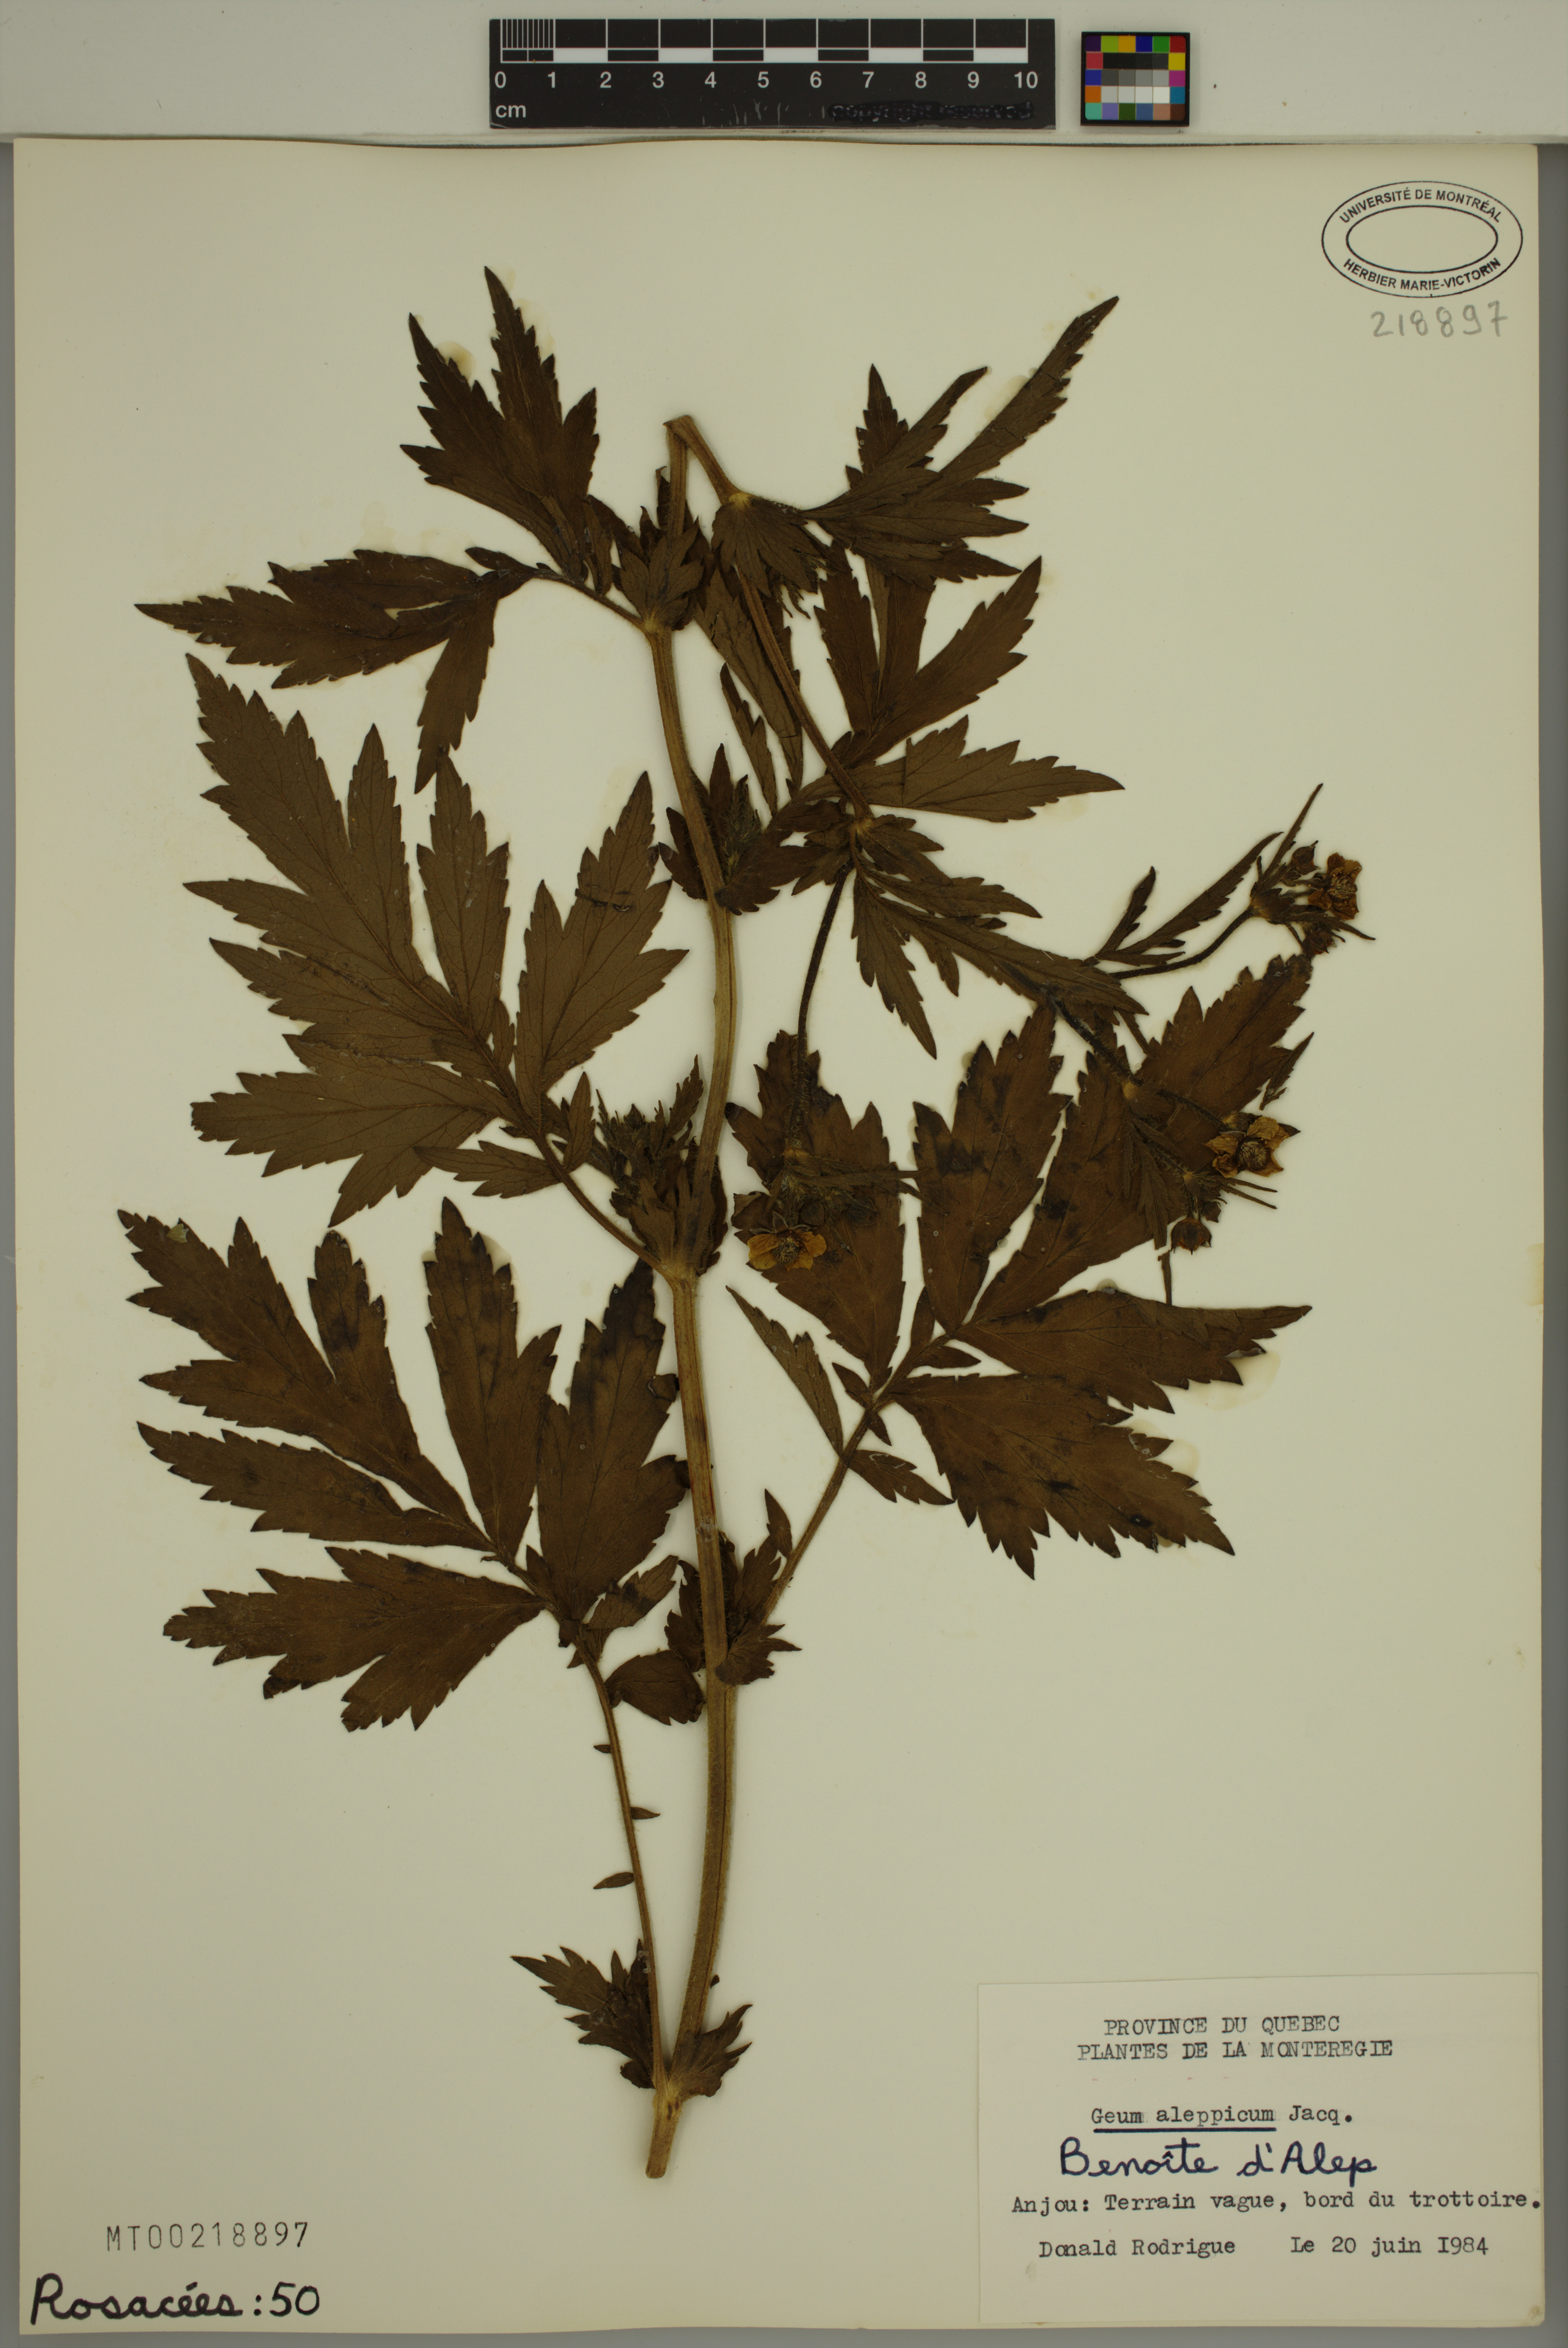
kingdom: Plantae
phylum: Tracheophyta
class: Magnoliopsida
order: Rosales
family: Rosaceae
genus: Geum
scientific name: Geum aleppicum
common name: Yellow avens
